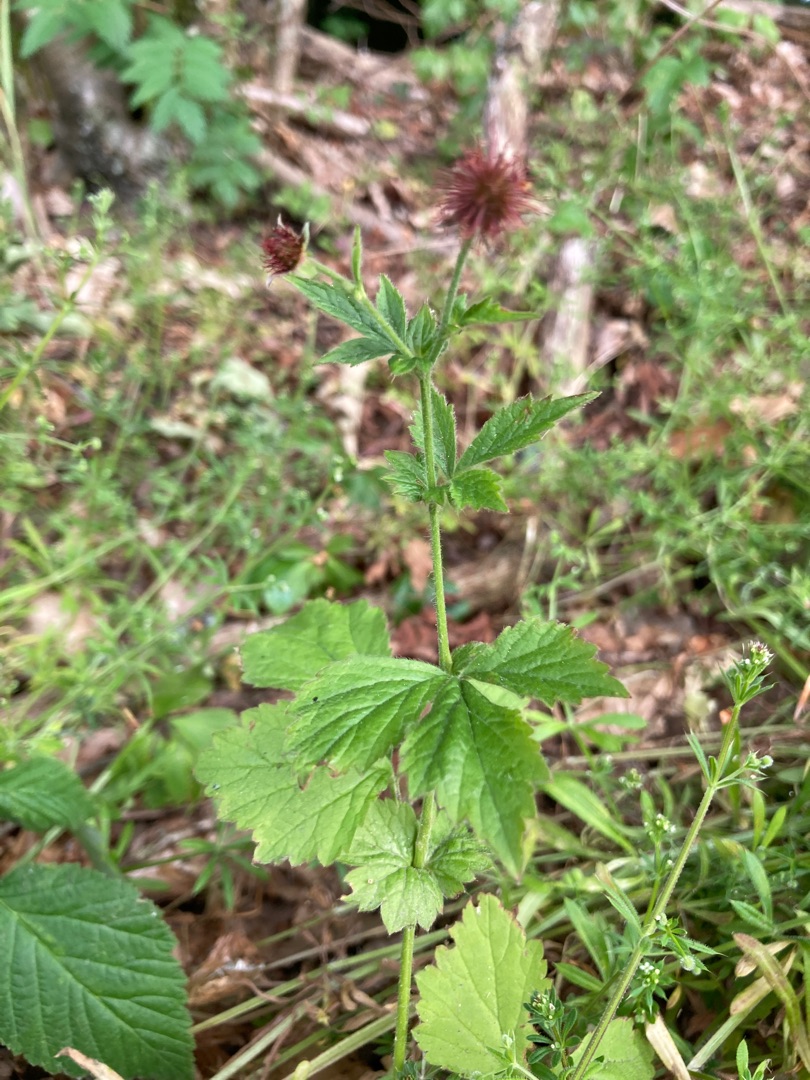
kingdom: Plantae
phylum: Tracheophyta
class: Magnoliopsida
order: Rosales
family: Rosaceae
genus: Geum
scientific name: Geum urbanum
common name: Feber-nellikerod
